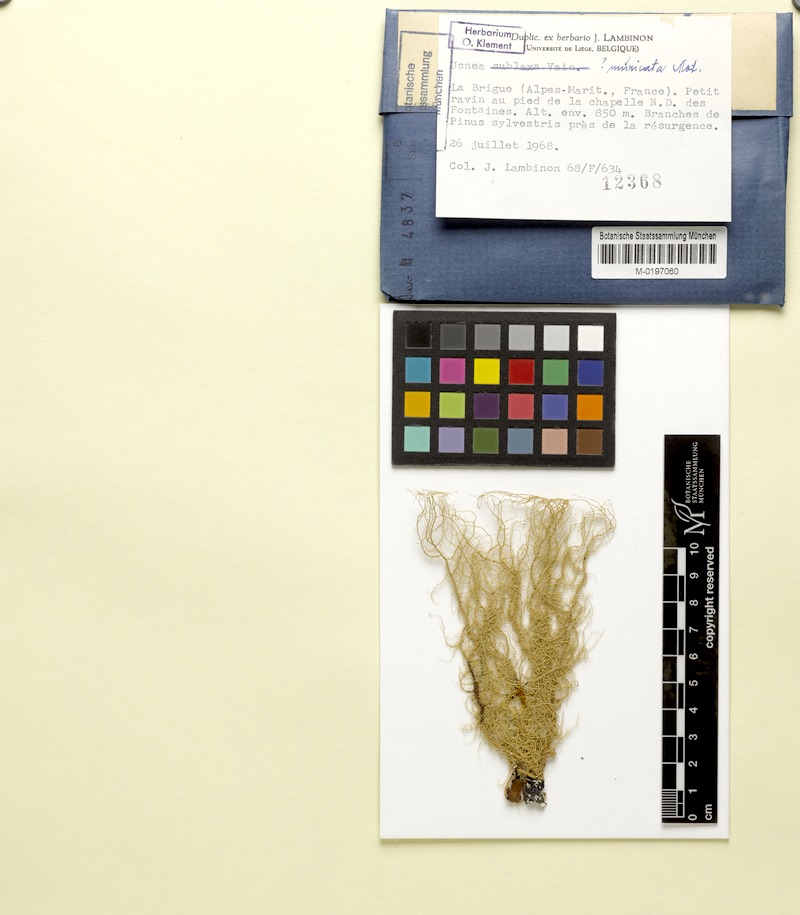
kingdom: Fungi
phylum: Ascomycota
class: Lecanoromycetes
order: Lecanorales
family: Parmeliaceae
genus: Usnea
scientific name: Usnea filipendula
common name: Fishbone beard lichen
